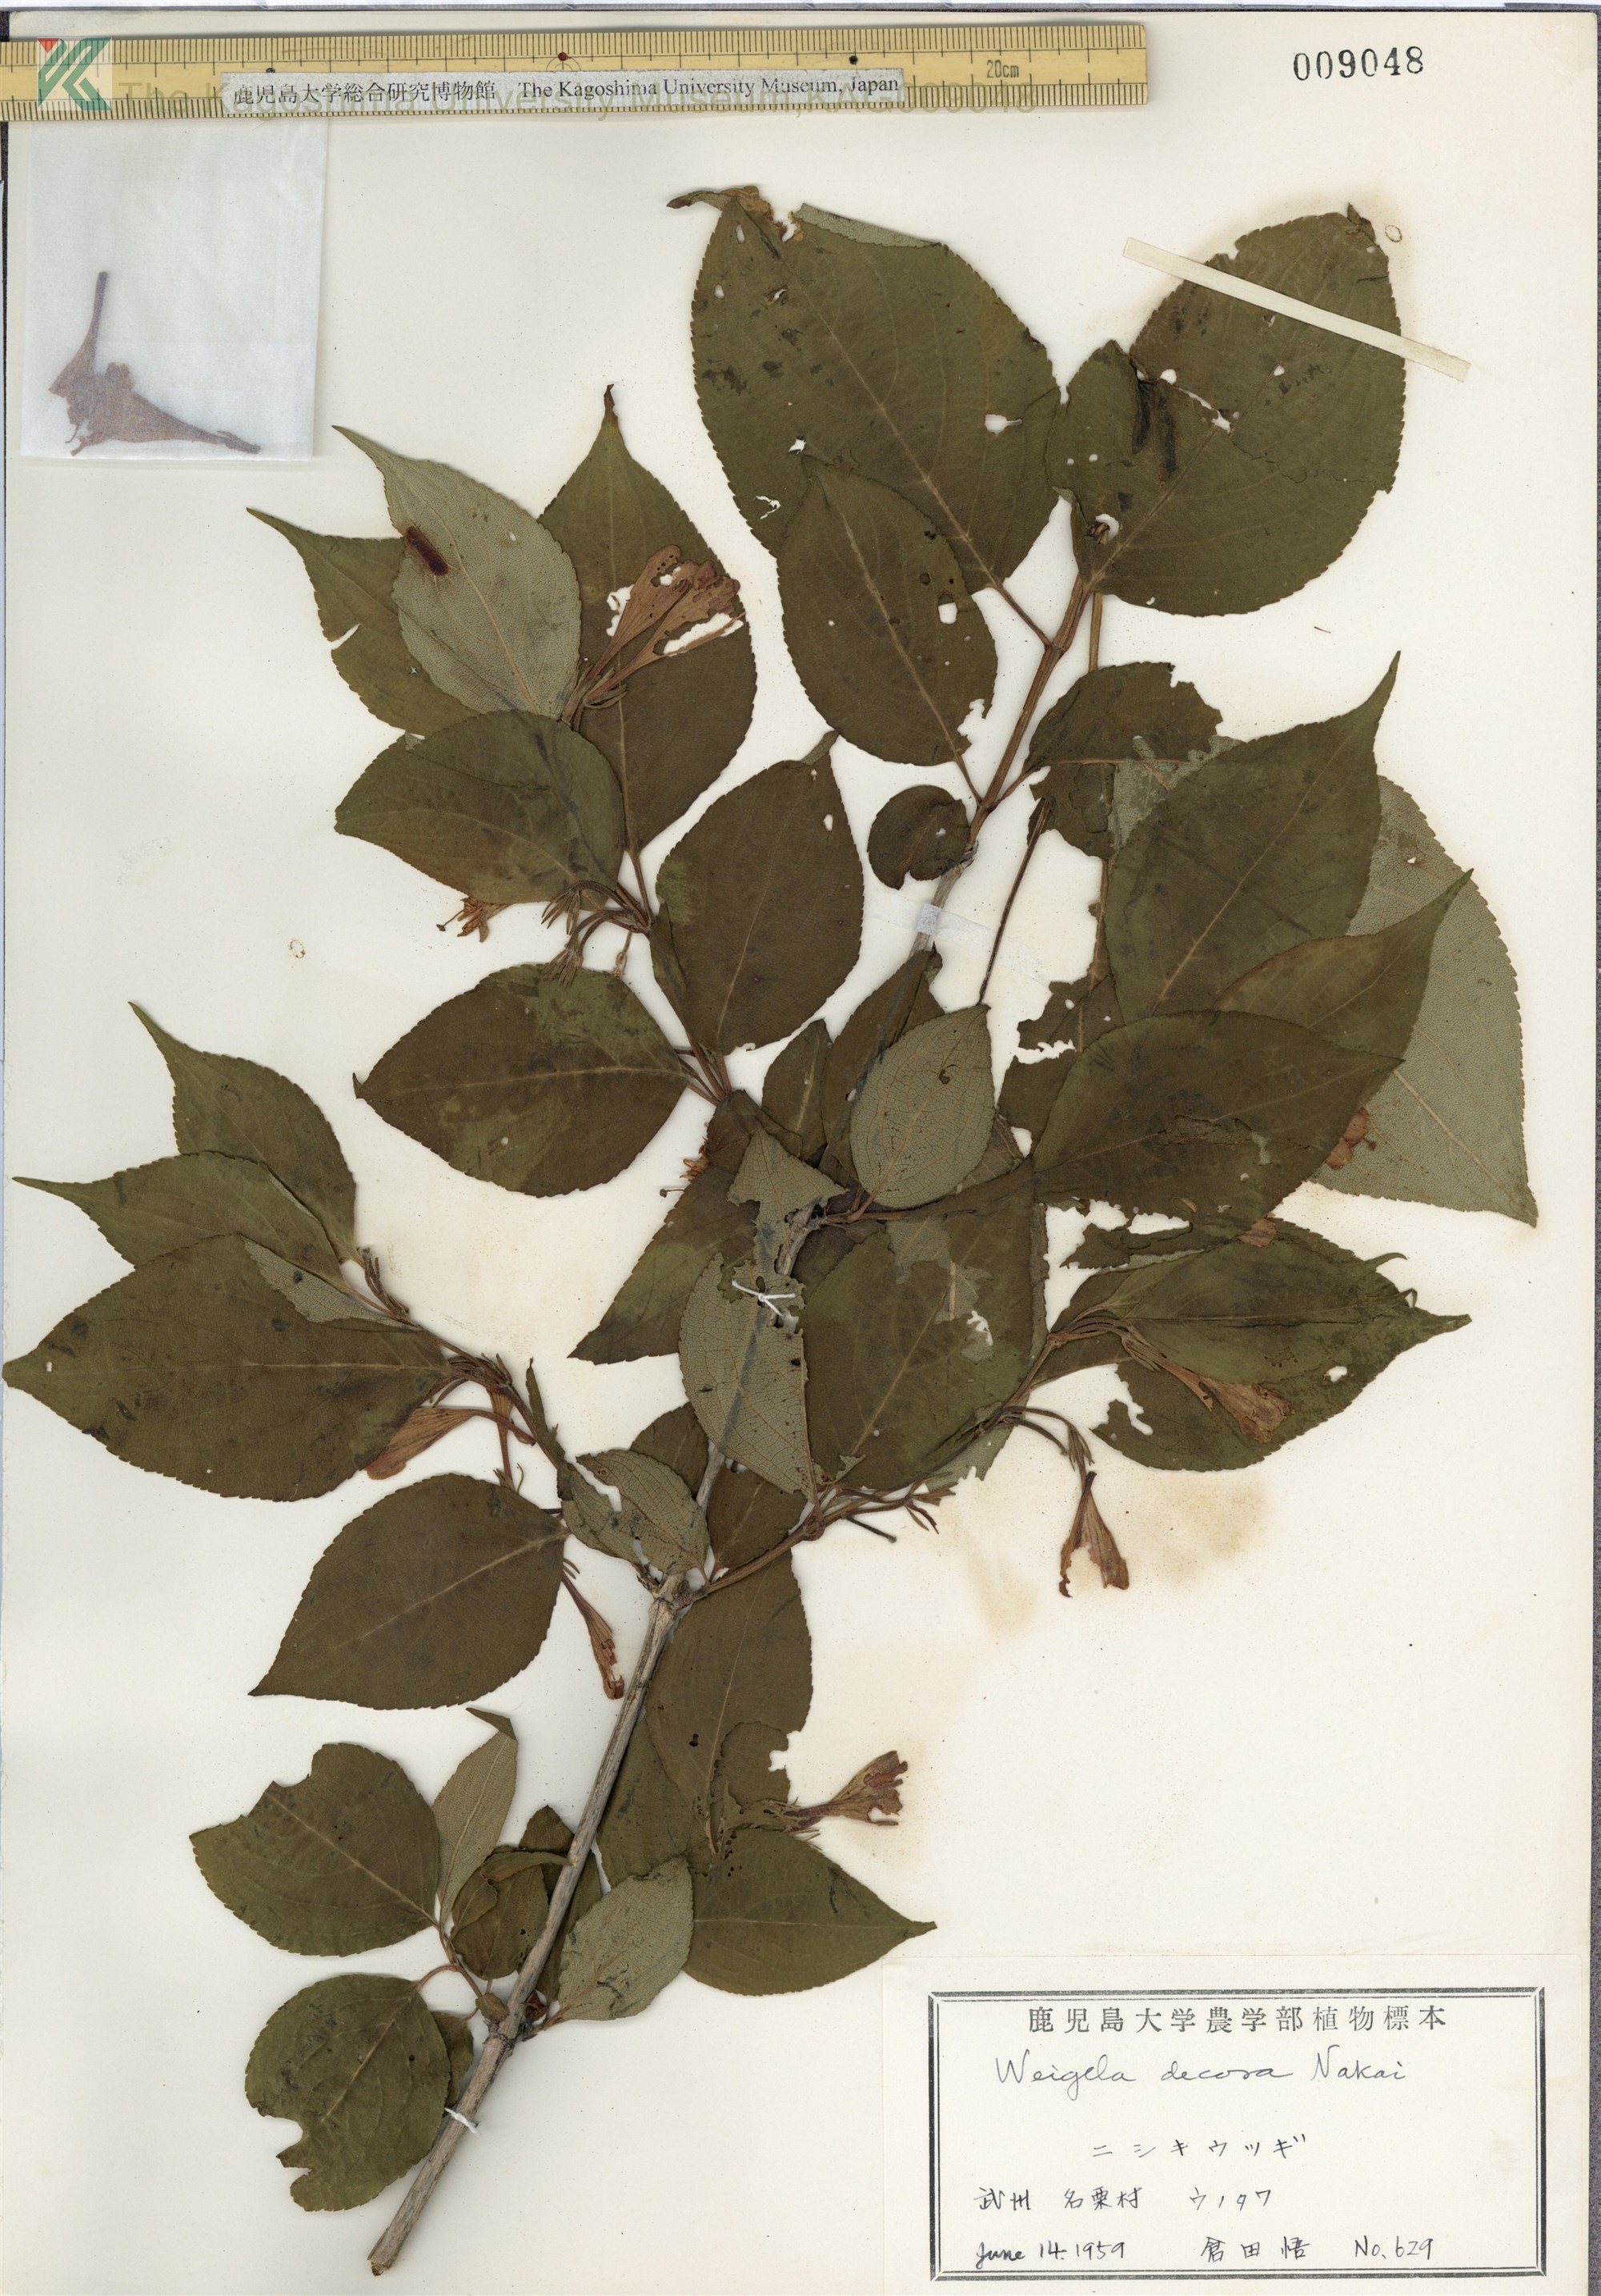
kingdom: Plantae
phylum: Tracheophyta
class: Magnoliopsida
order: Dipsacales
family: Caprifoliaceae
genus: Weigela
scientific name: Weigela decora
